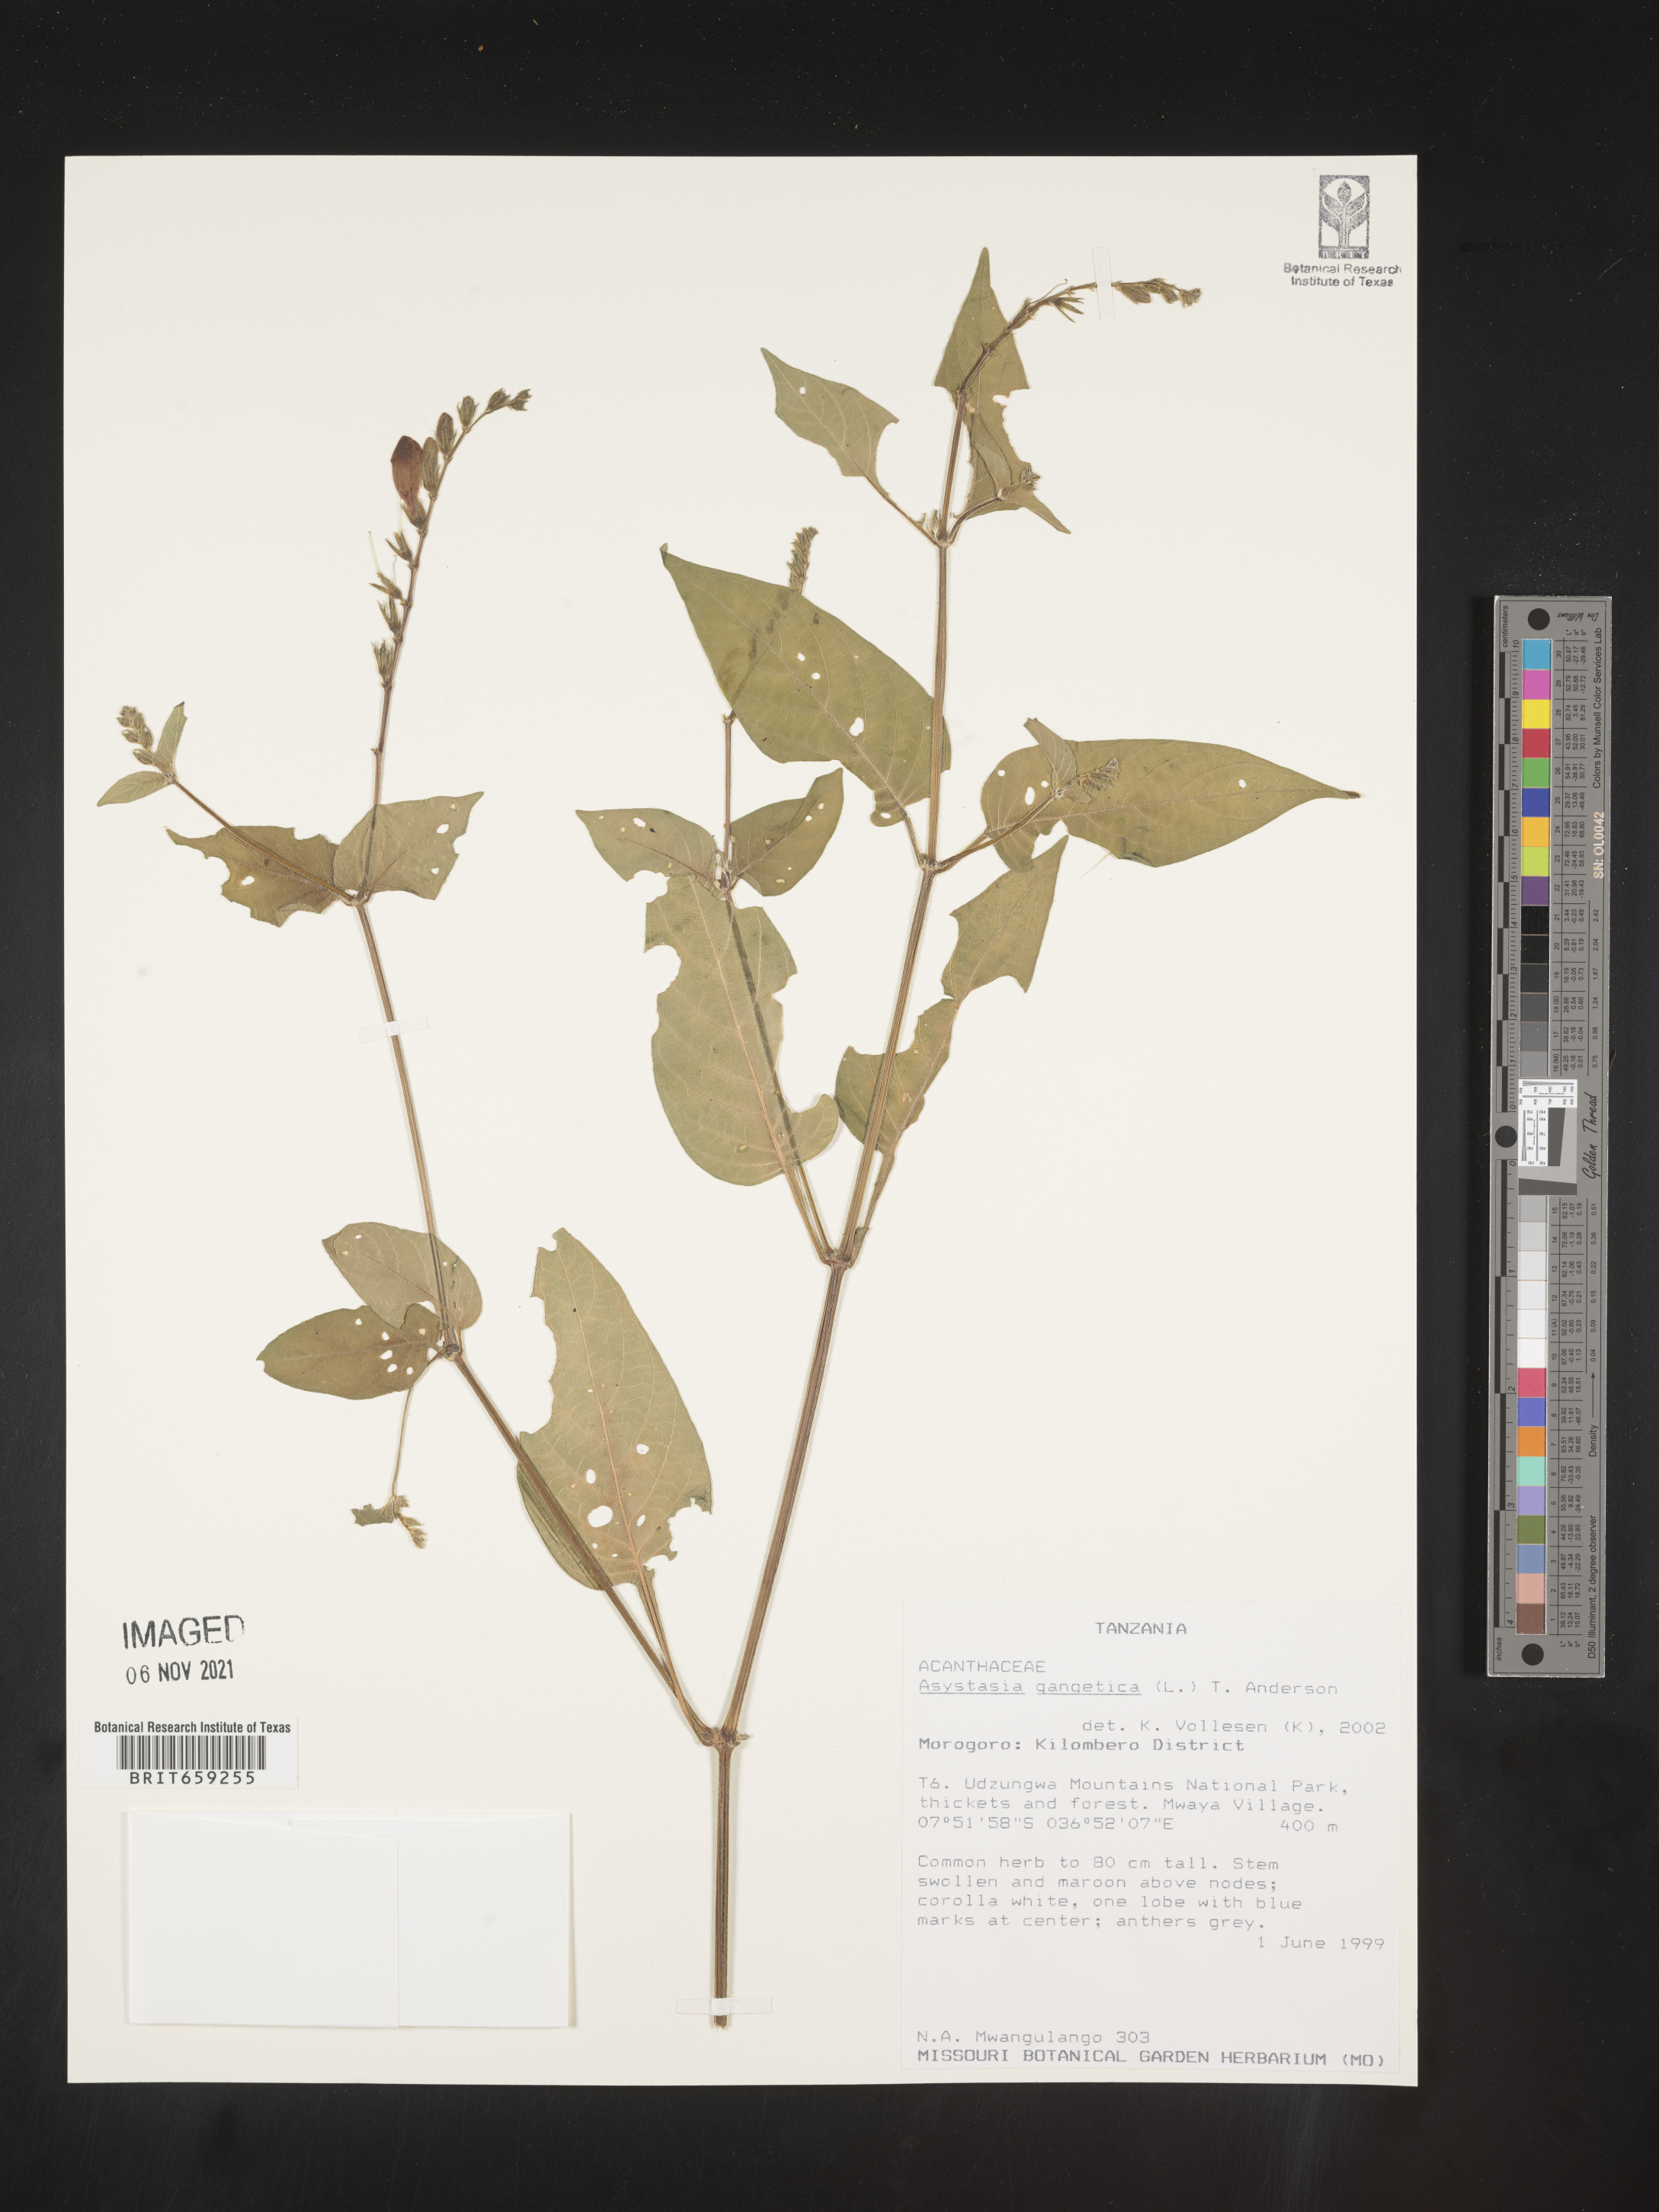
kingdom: Plantae
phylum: Tracheophyta
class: Magnoliopsida
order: Lamiales
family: Acanthaceae
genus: Asystasia
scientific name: Asystasia gangetica
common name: Chinese violet
